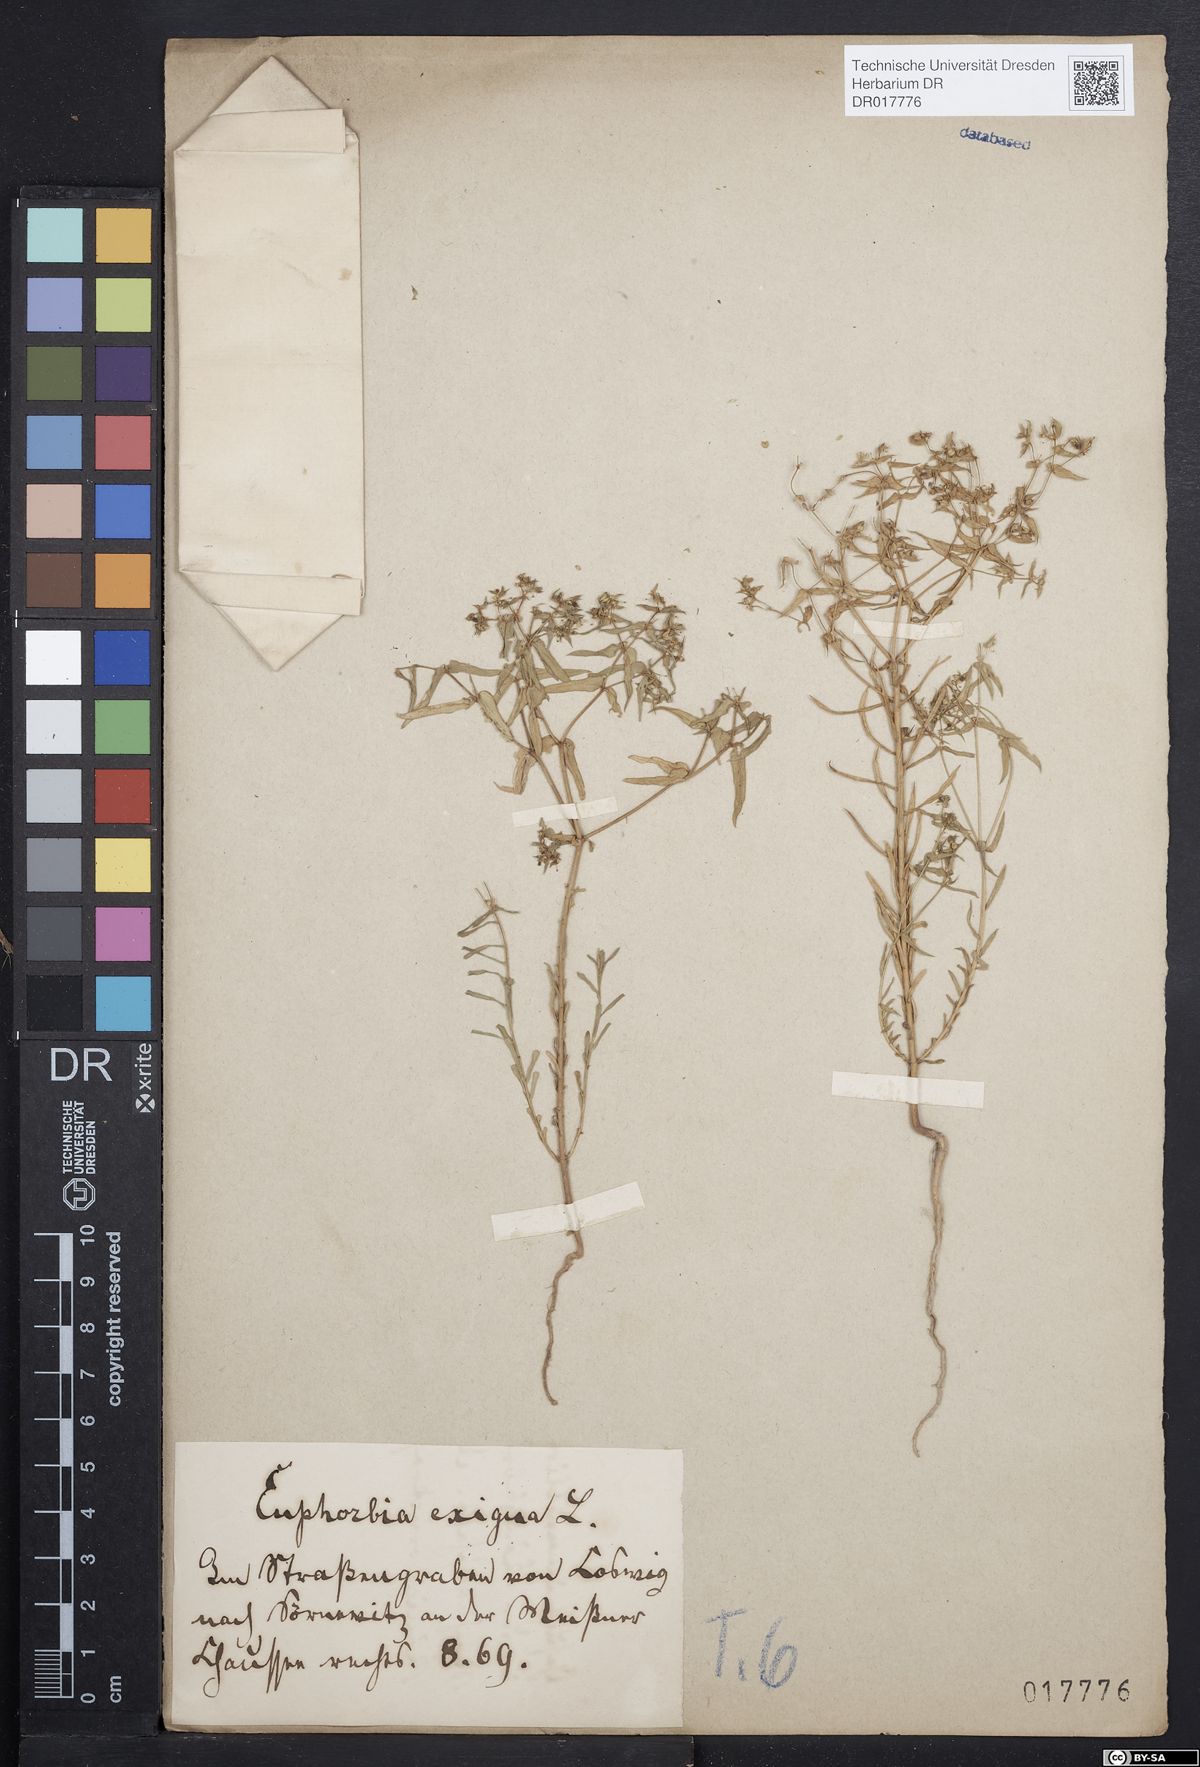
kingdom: Plantae
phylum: Tracheophyta
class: Magnoliopsida
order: Malpighiales
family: Euphorbiaceae
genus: Euphorbia
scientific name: Euphorbia exigua
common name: Dwarf spurge
